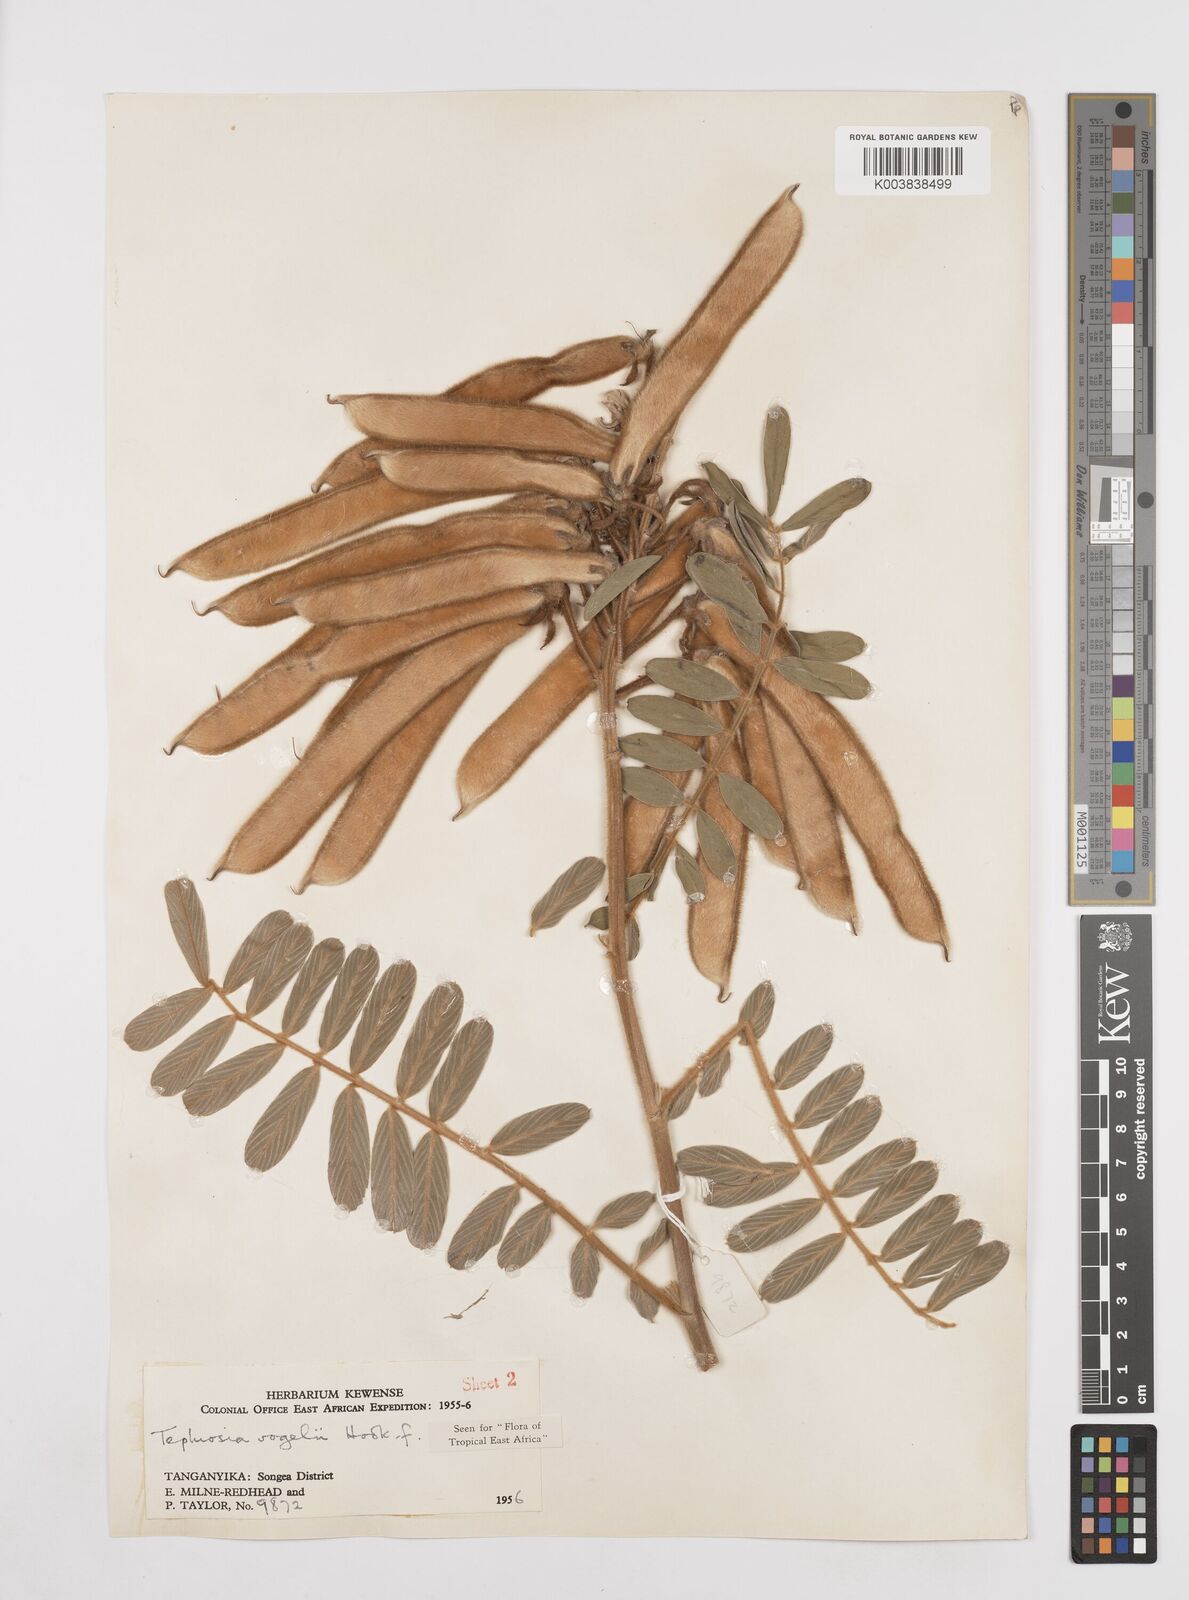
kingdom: Plantae
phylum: Tracheophyta
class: Magnoliopsida
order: Fabales
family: Fabaceae
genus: Tephrosia
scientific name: Tephrosia vogelii
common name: Vogel tephrosia
